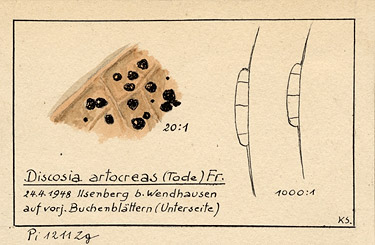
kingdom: Plantae
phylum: Tracheophyta
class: Magnoliopsida
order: Fagales
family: Fagaceae
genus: Fagus
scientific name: Fagus
